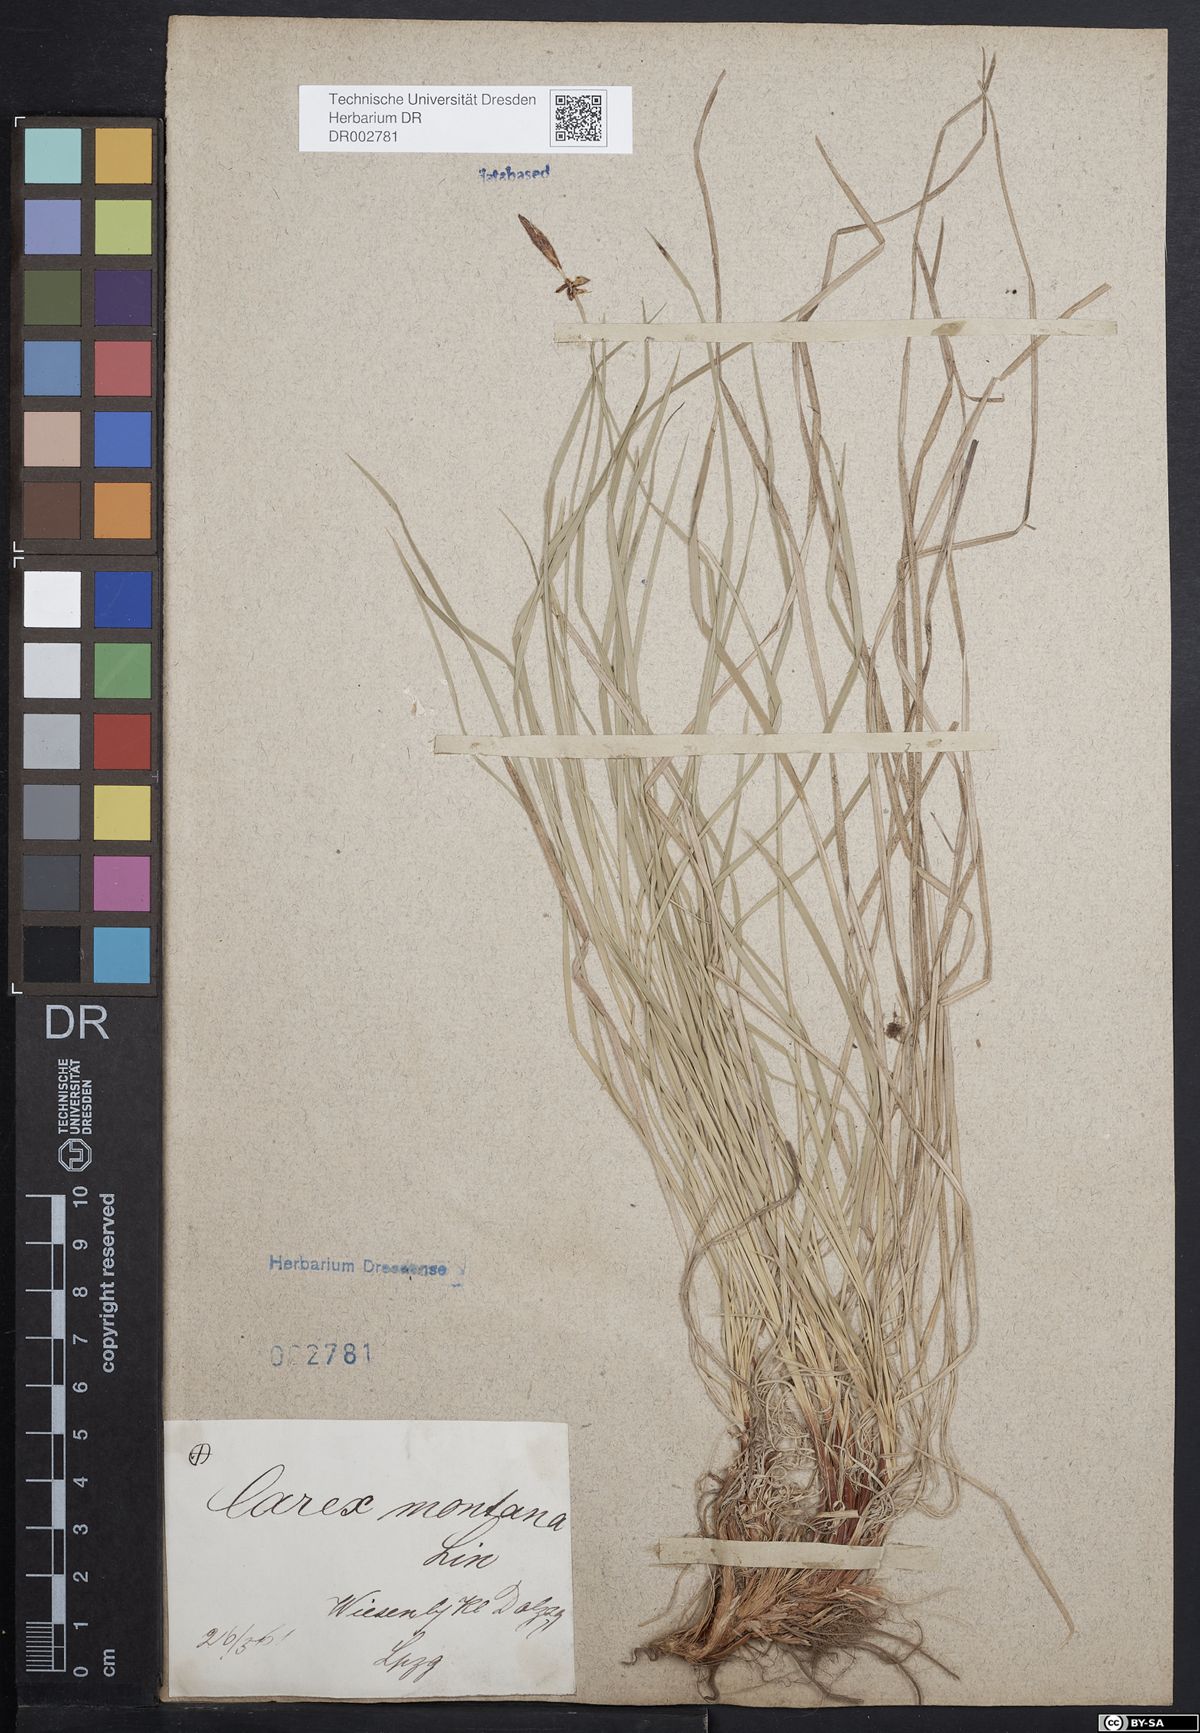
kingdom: Plantae
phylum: Tracheophyta
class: Liliopsida
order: Poales
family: Cyperaceae
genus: Carex
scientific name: Carex montana
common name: Soft-leaved sedge
